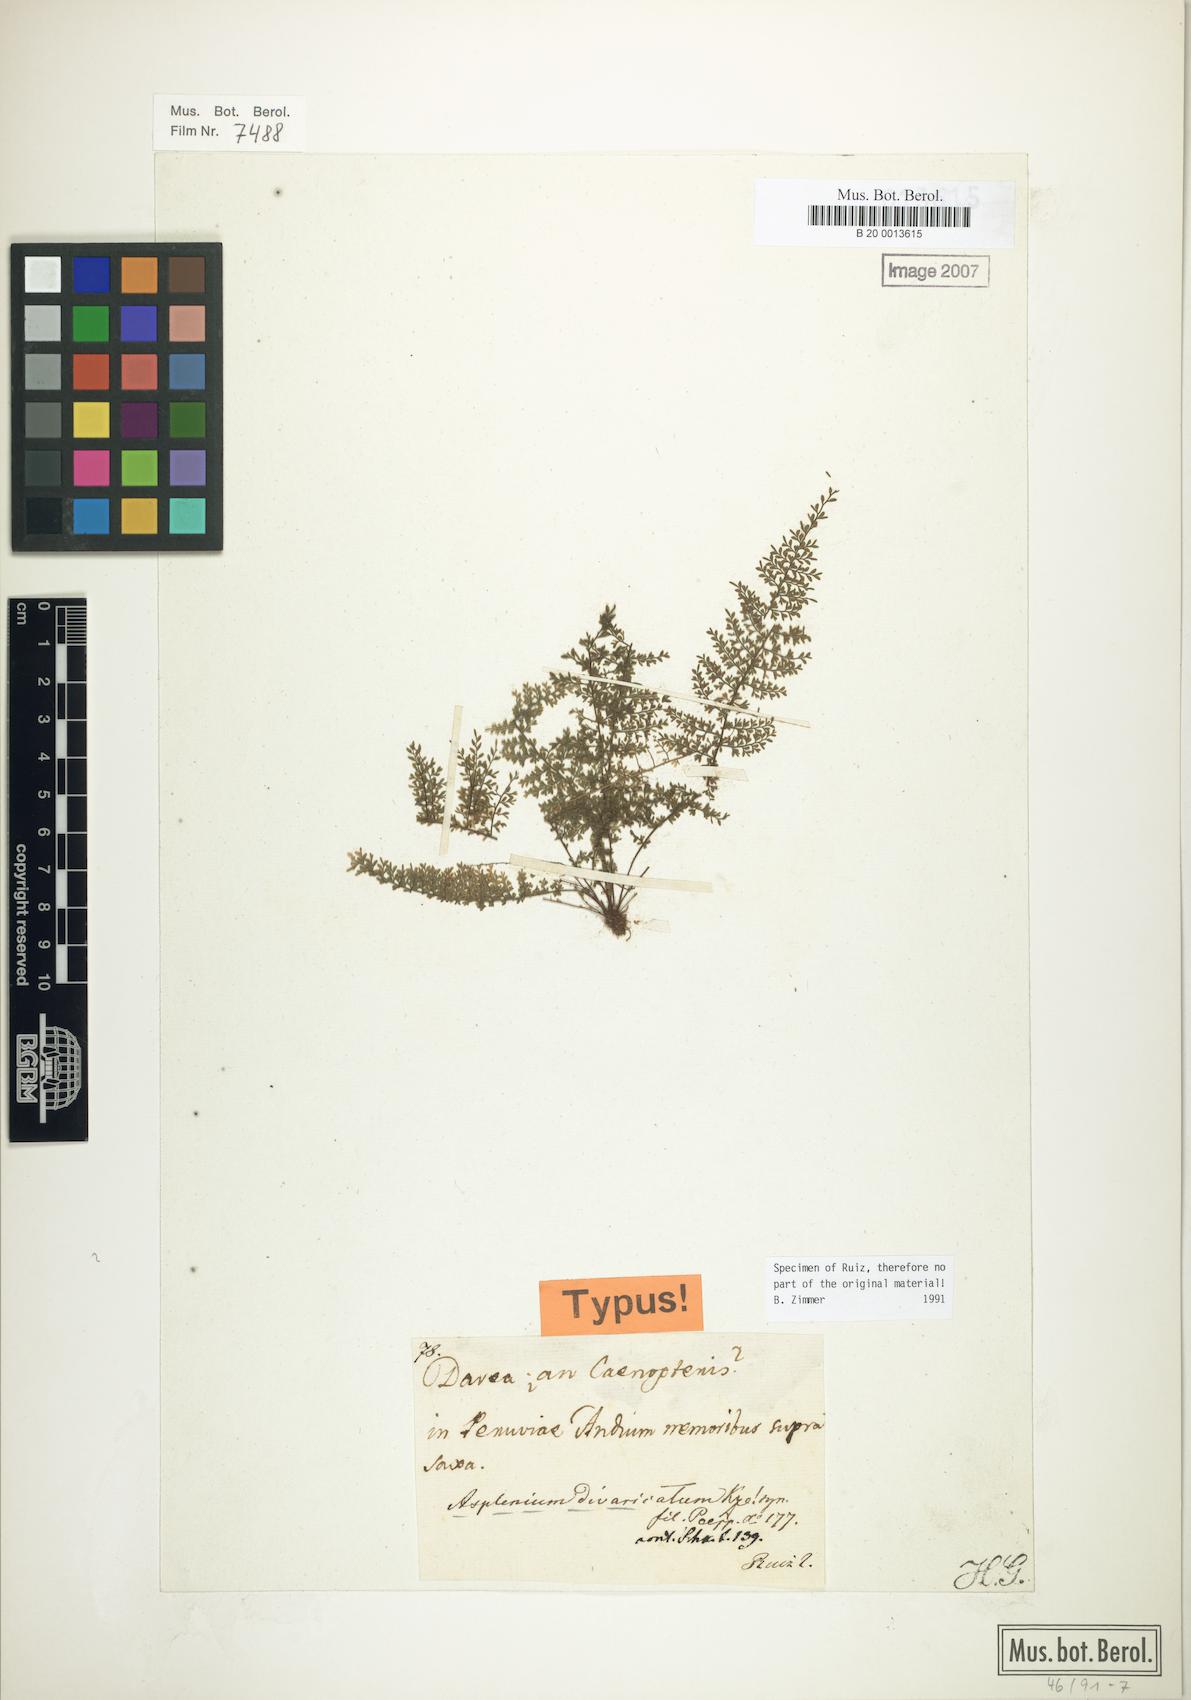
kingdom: Plantae
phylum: Tracheophyta
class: Polypodiopsida
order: Polypodiales
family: Aspleniaceae
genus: Asplenium
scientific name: Asplenium divaricatum
